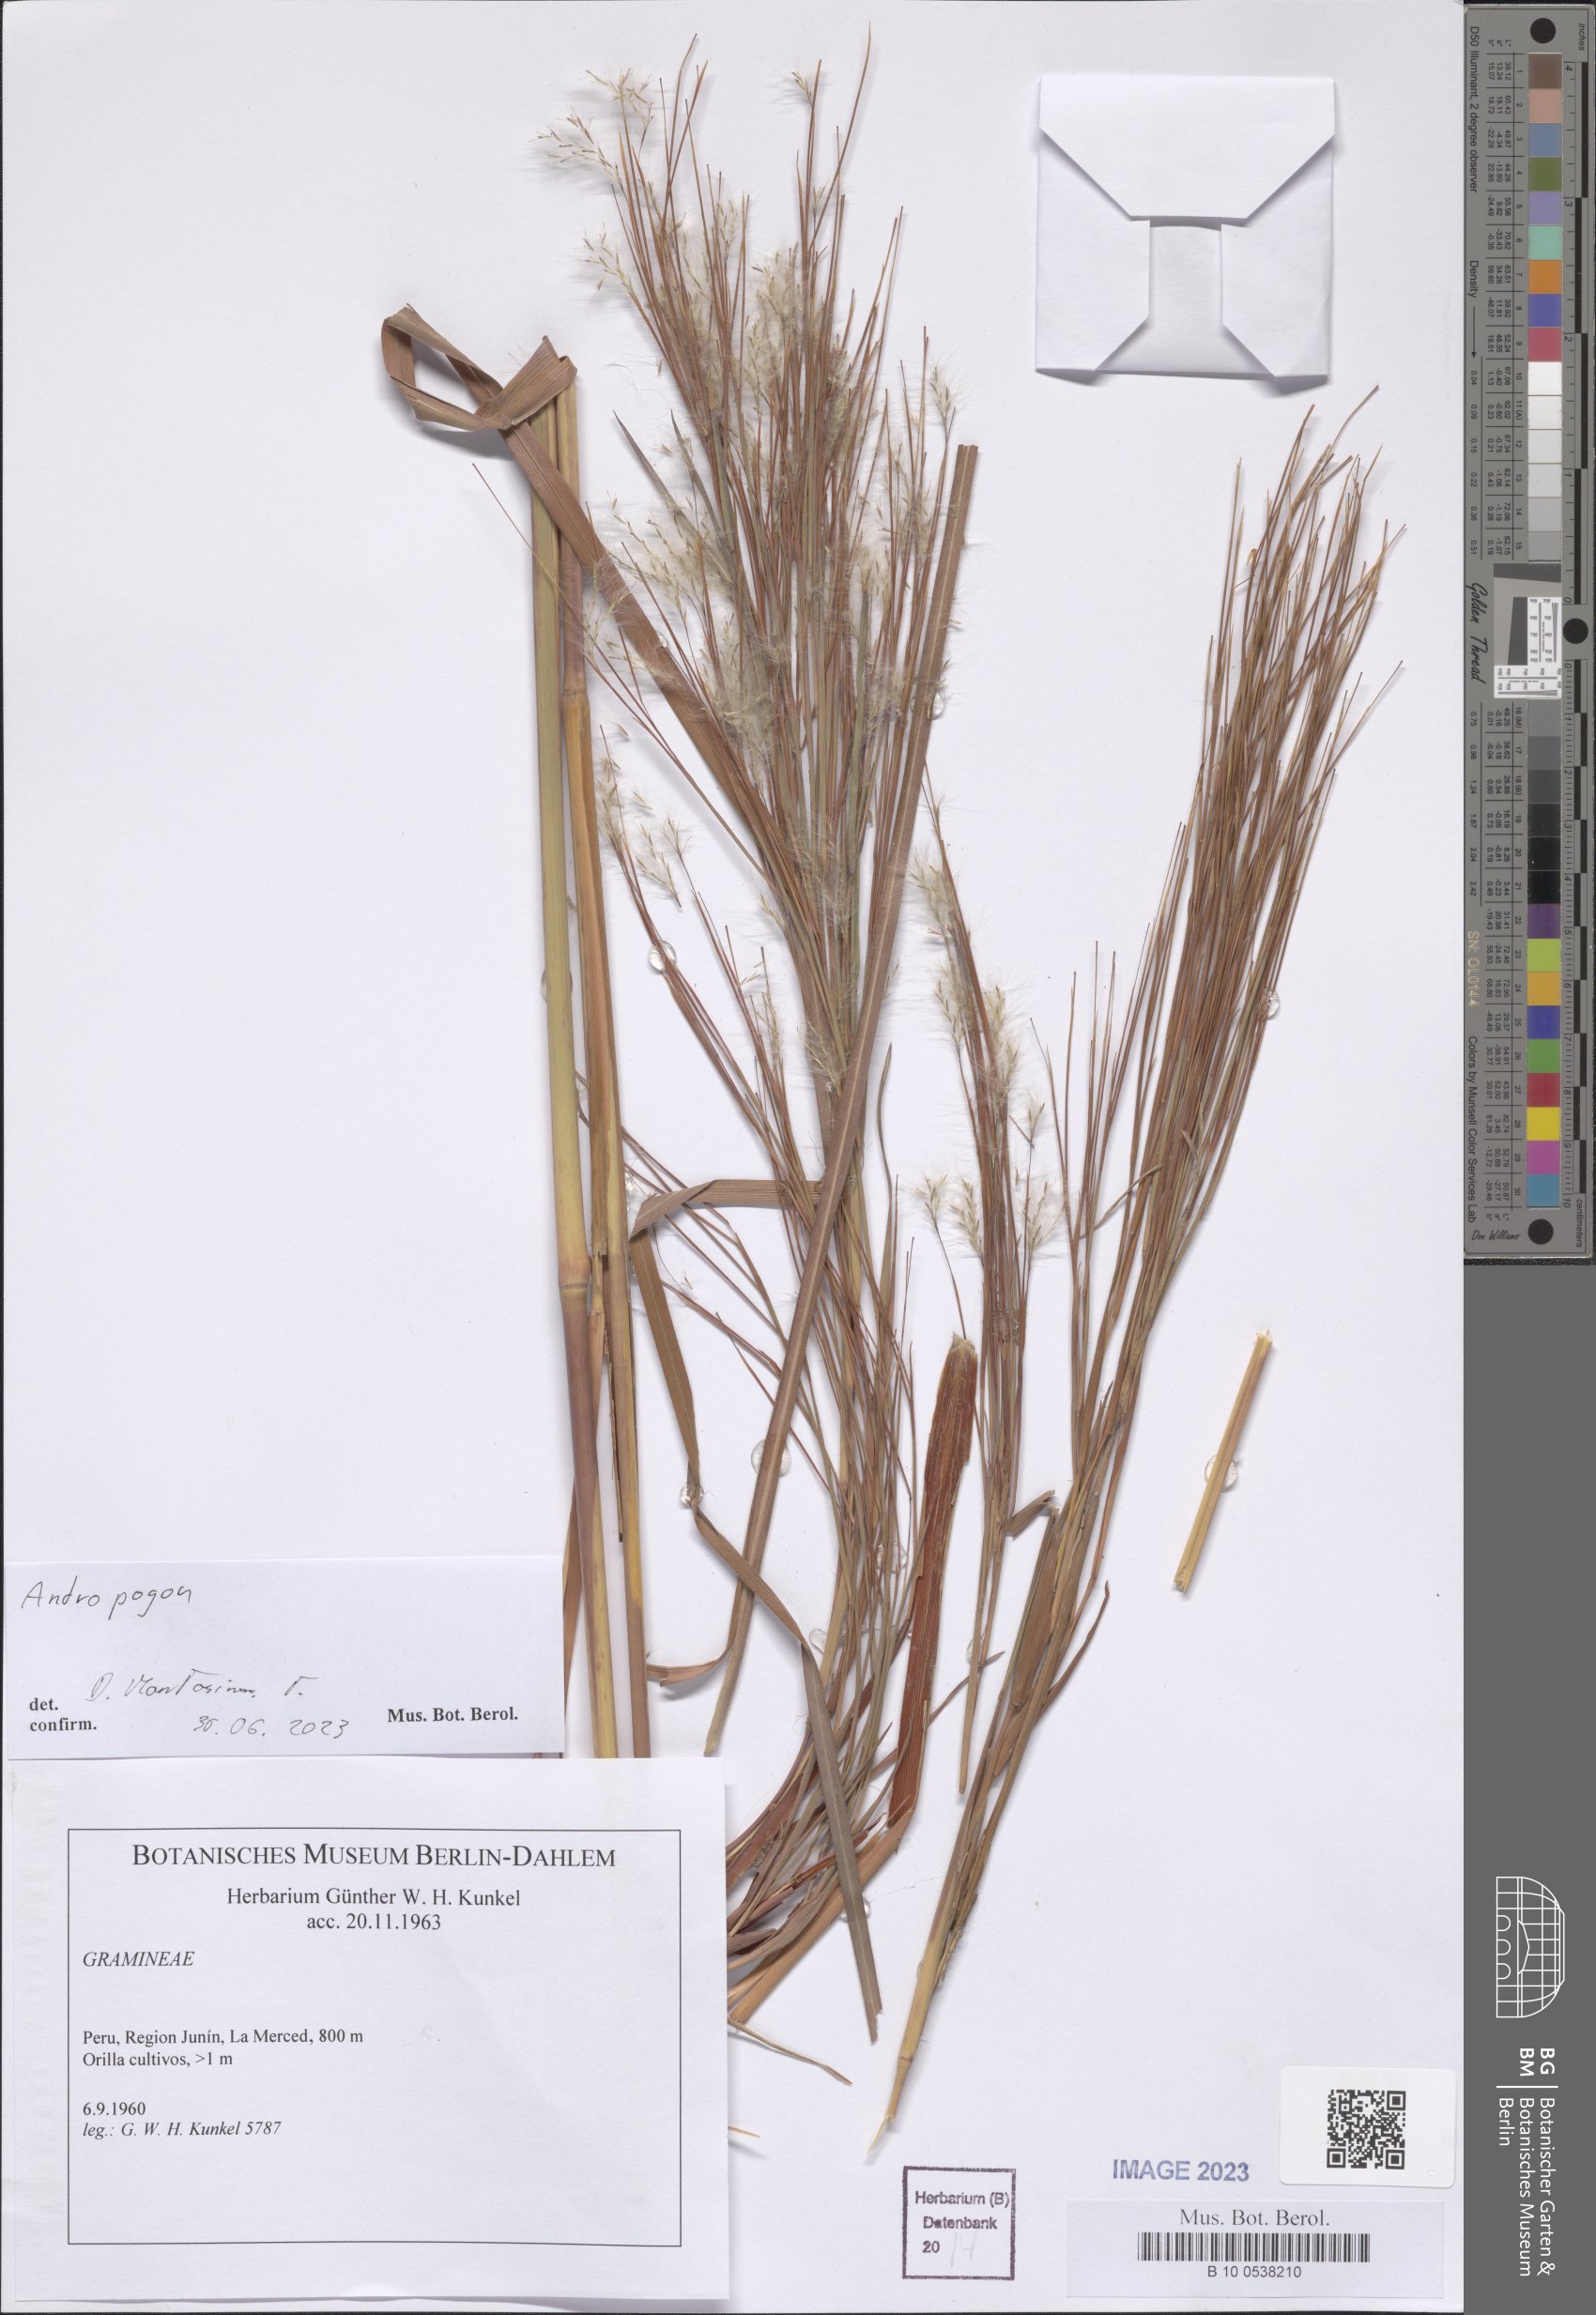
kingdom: Plantae
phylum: Tracheophyta
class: Liliopsida
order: Poales
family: Poaceae
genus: Andropogon
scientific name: Andropogon
